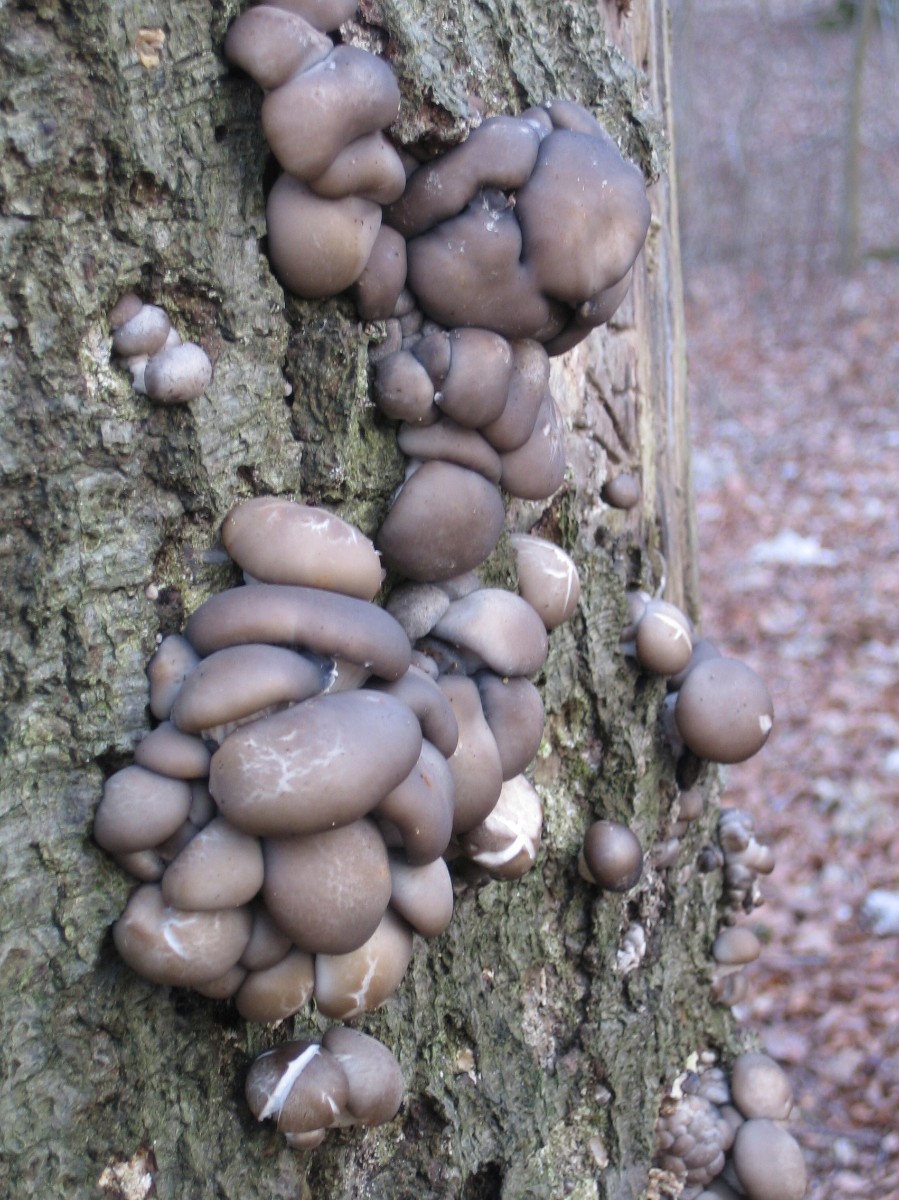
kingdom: Fungi
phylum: Basidiomycota
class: Agaricomycetes
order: Agaricales
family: Pleurotaceae
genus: Pleurotus
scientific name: Pleurotus ostreatus
